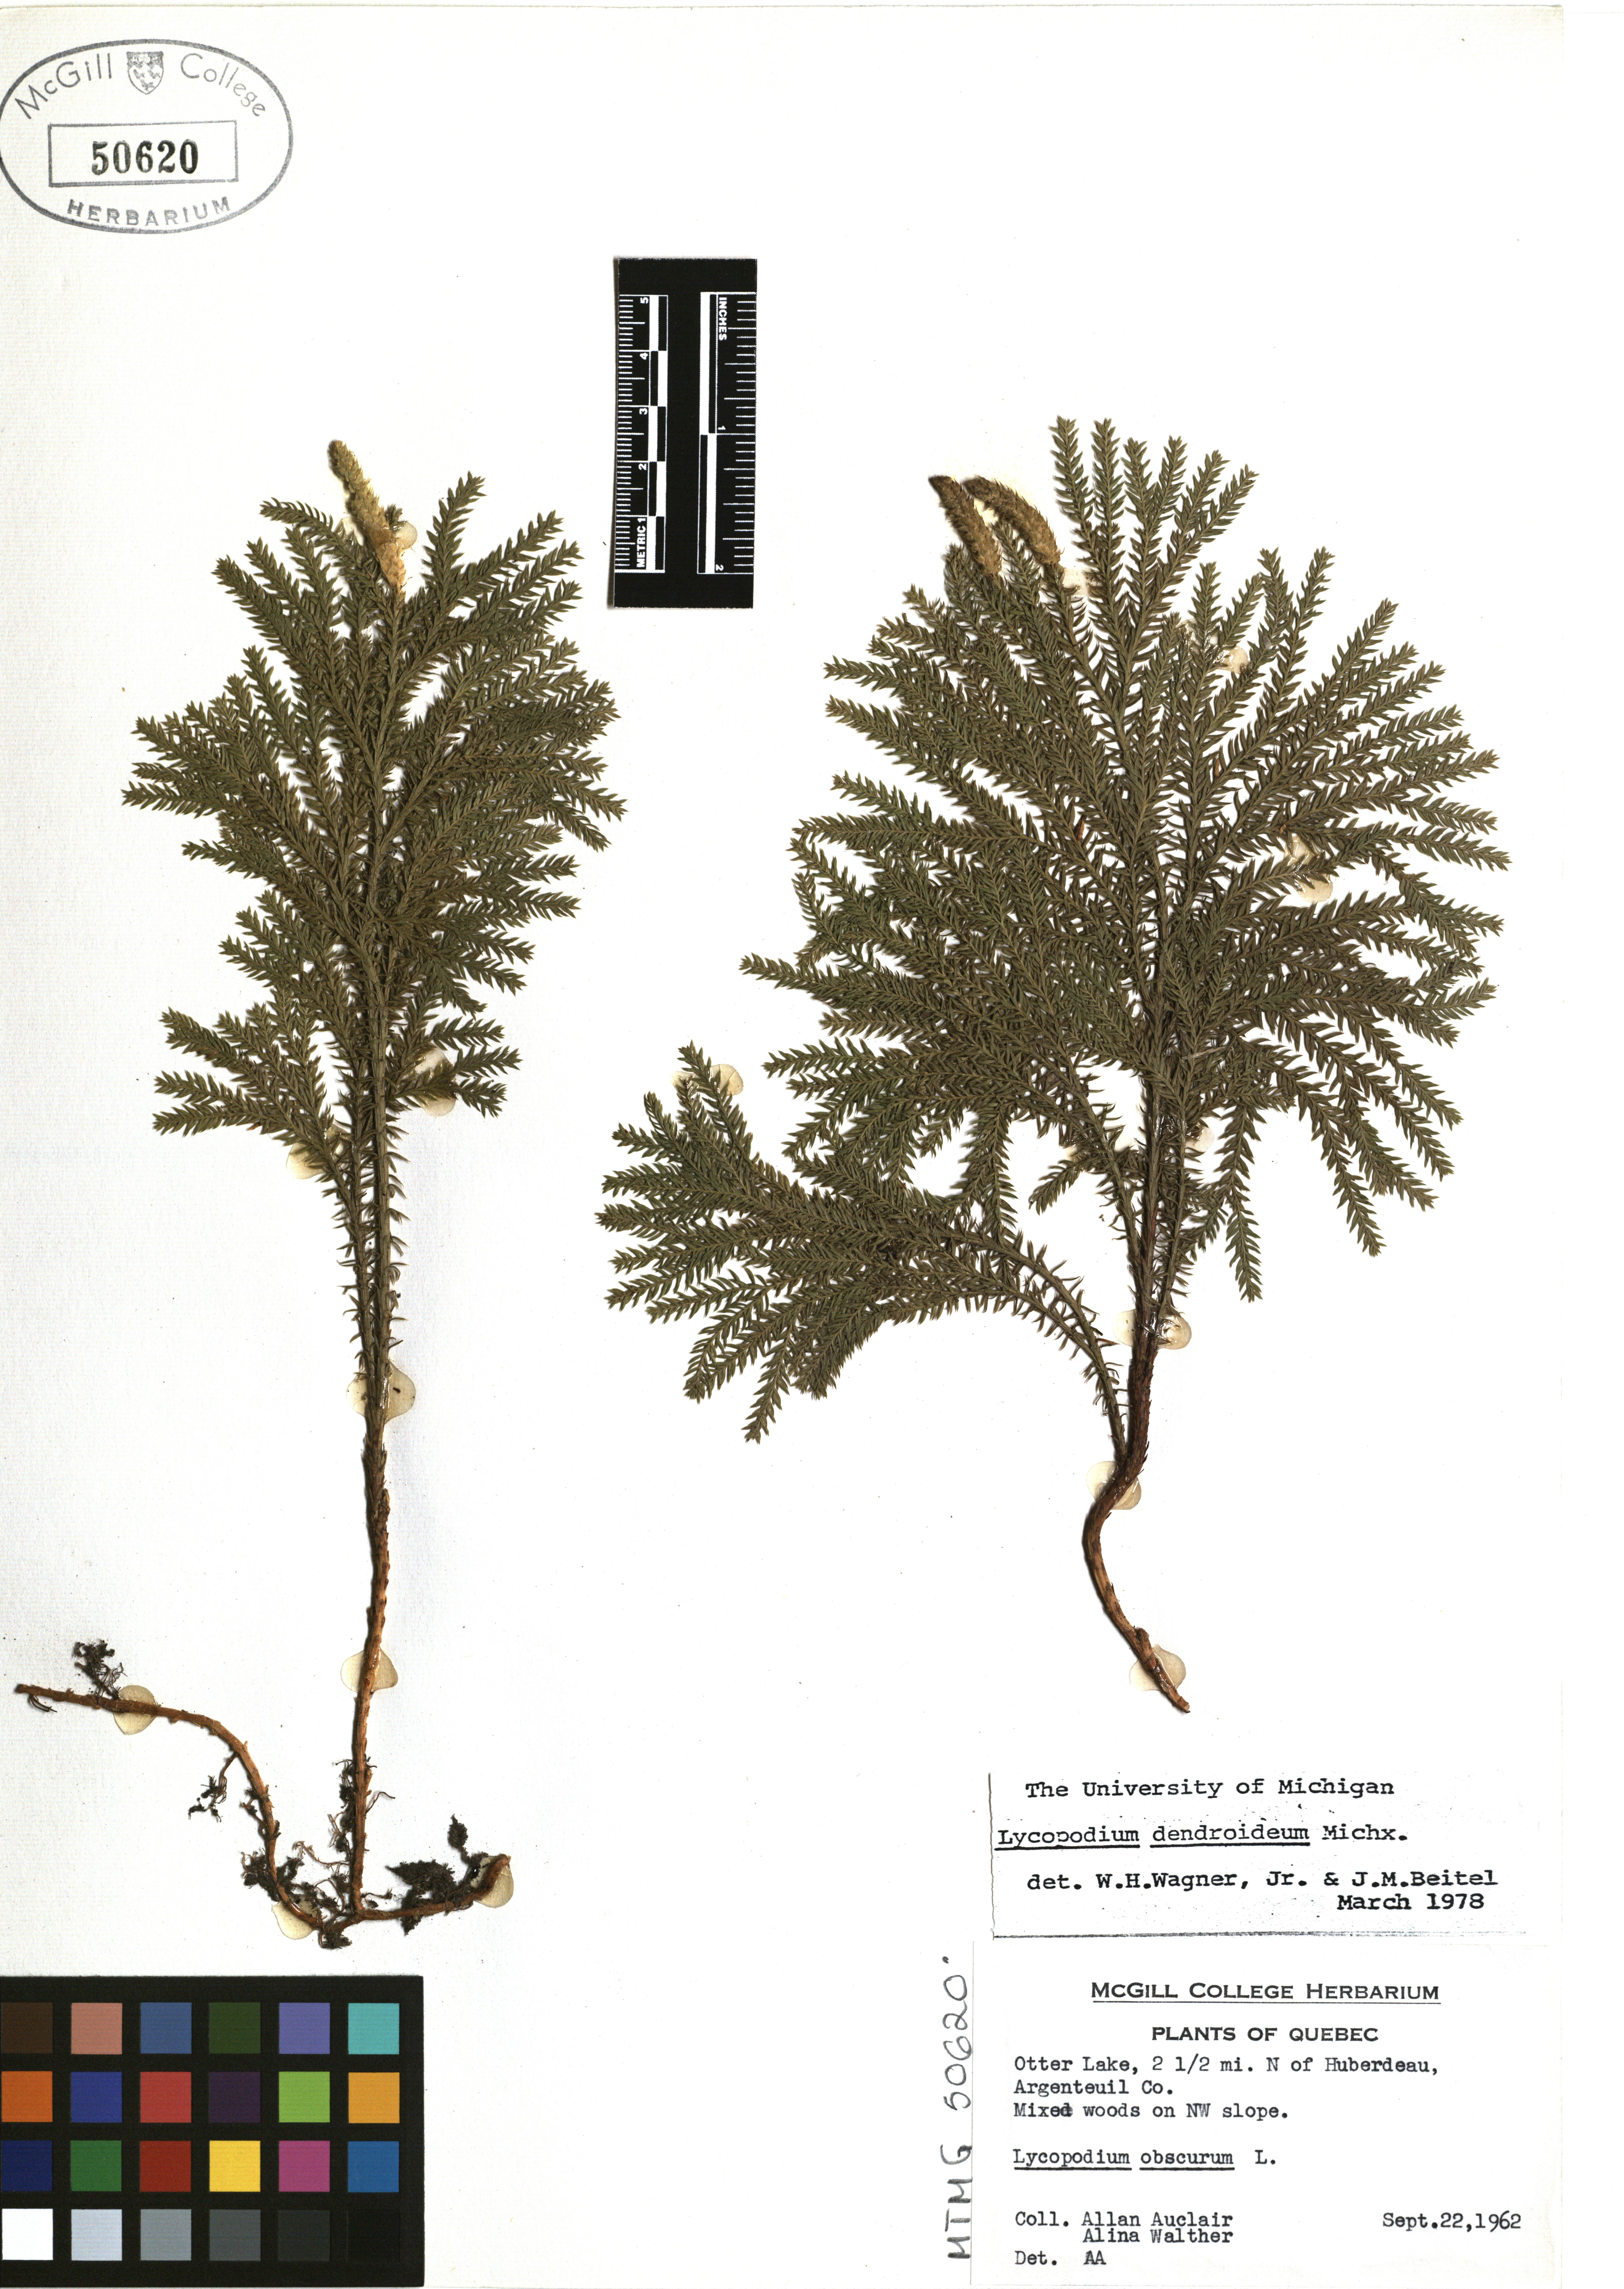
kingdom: Plantae
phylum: Tracheophyta
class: Lycopodiopsida
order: Lycopodiales
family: Lycopodiaceae
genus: Dendrolycopodium
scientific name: Dendrolycopodium dendroideum
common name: Northern tree-clubmoss
